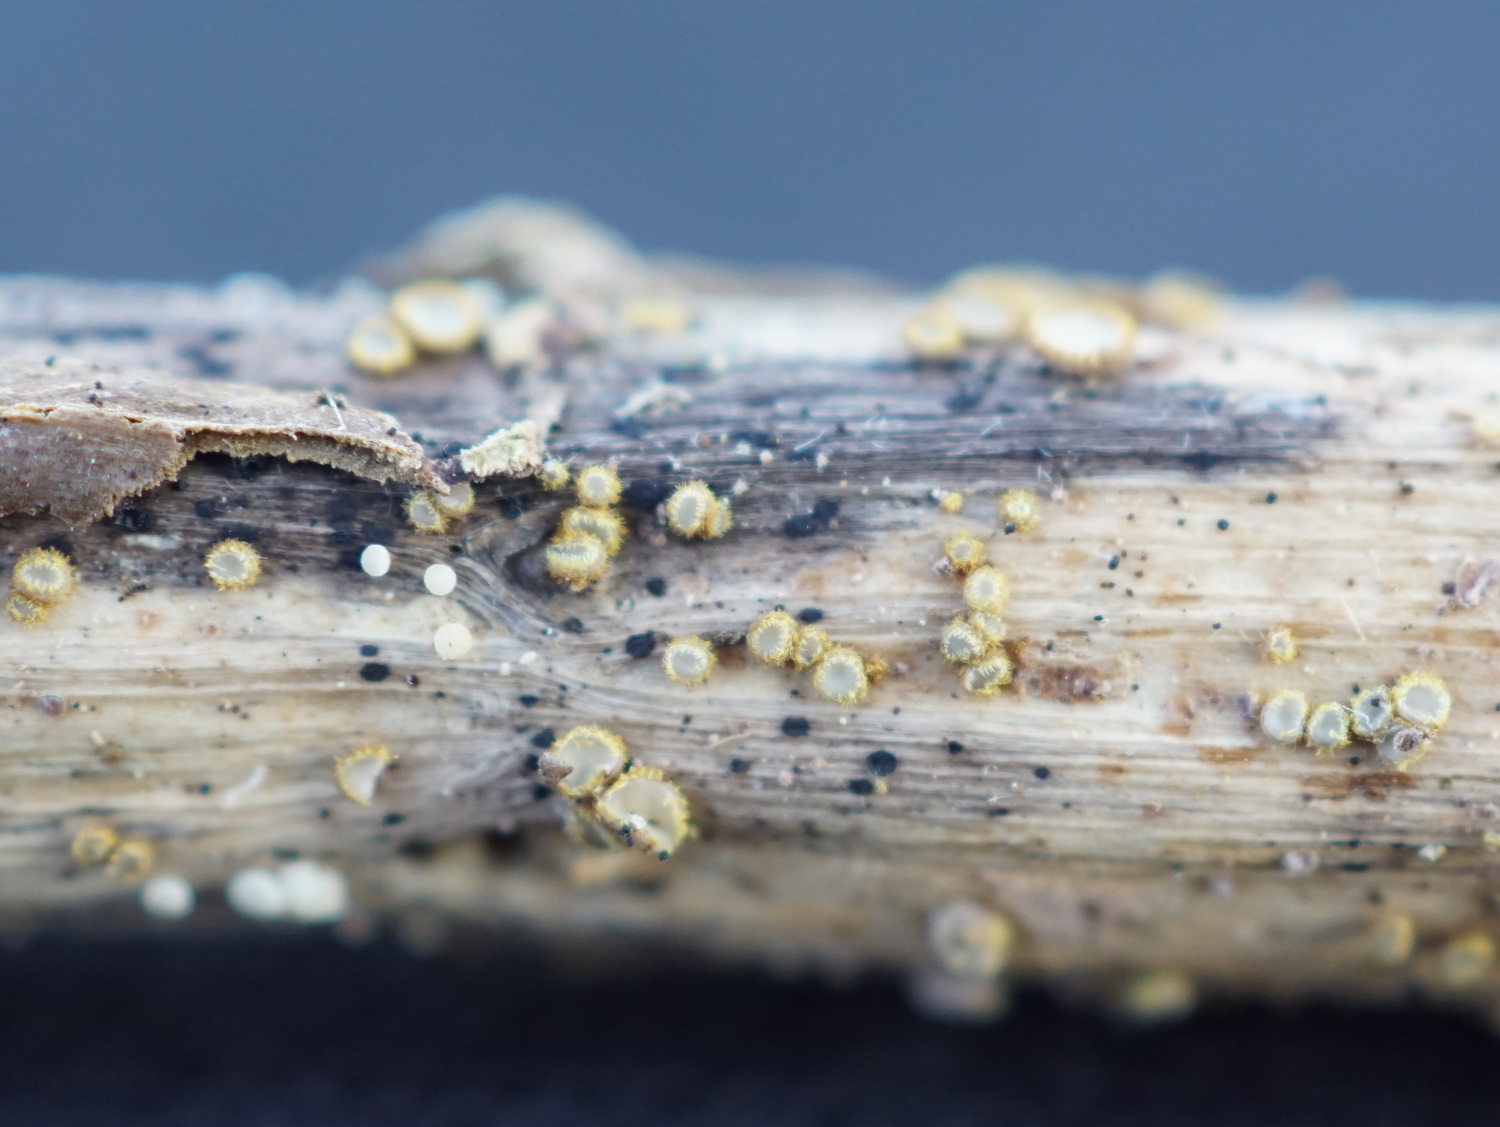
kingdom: Fungi
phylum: Ascomycota
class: Leotiomycetes
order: Helotiales
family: Lachnaceae
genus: Trichopeziza
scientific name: Trichopeziza
